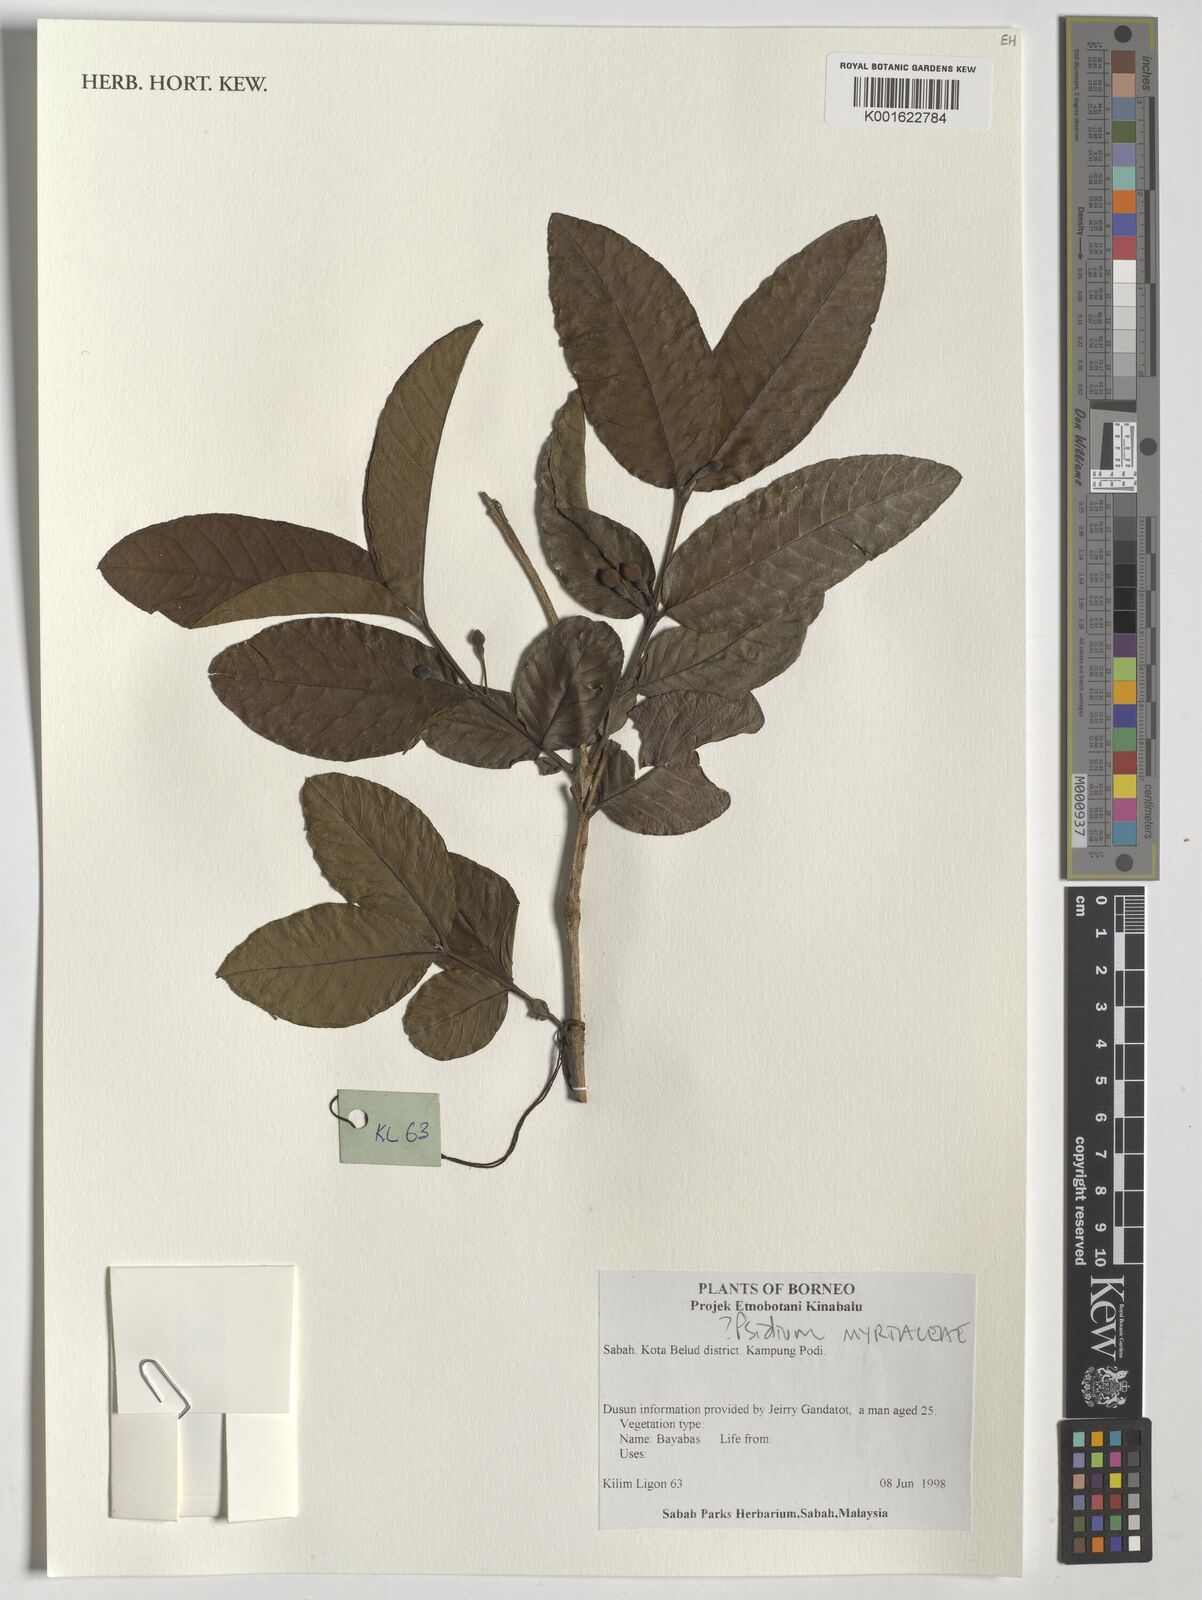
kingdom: Plantae
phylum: Tracheophyta
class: Magnoliopsida
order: Myrtales
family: Myrtaceae
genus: Psidium
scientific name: Psidium
